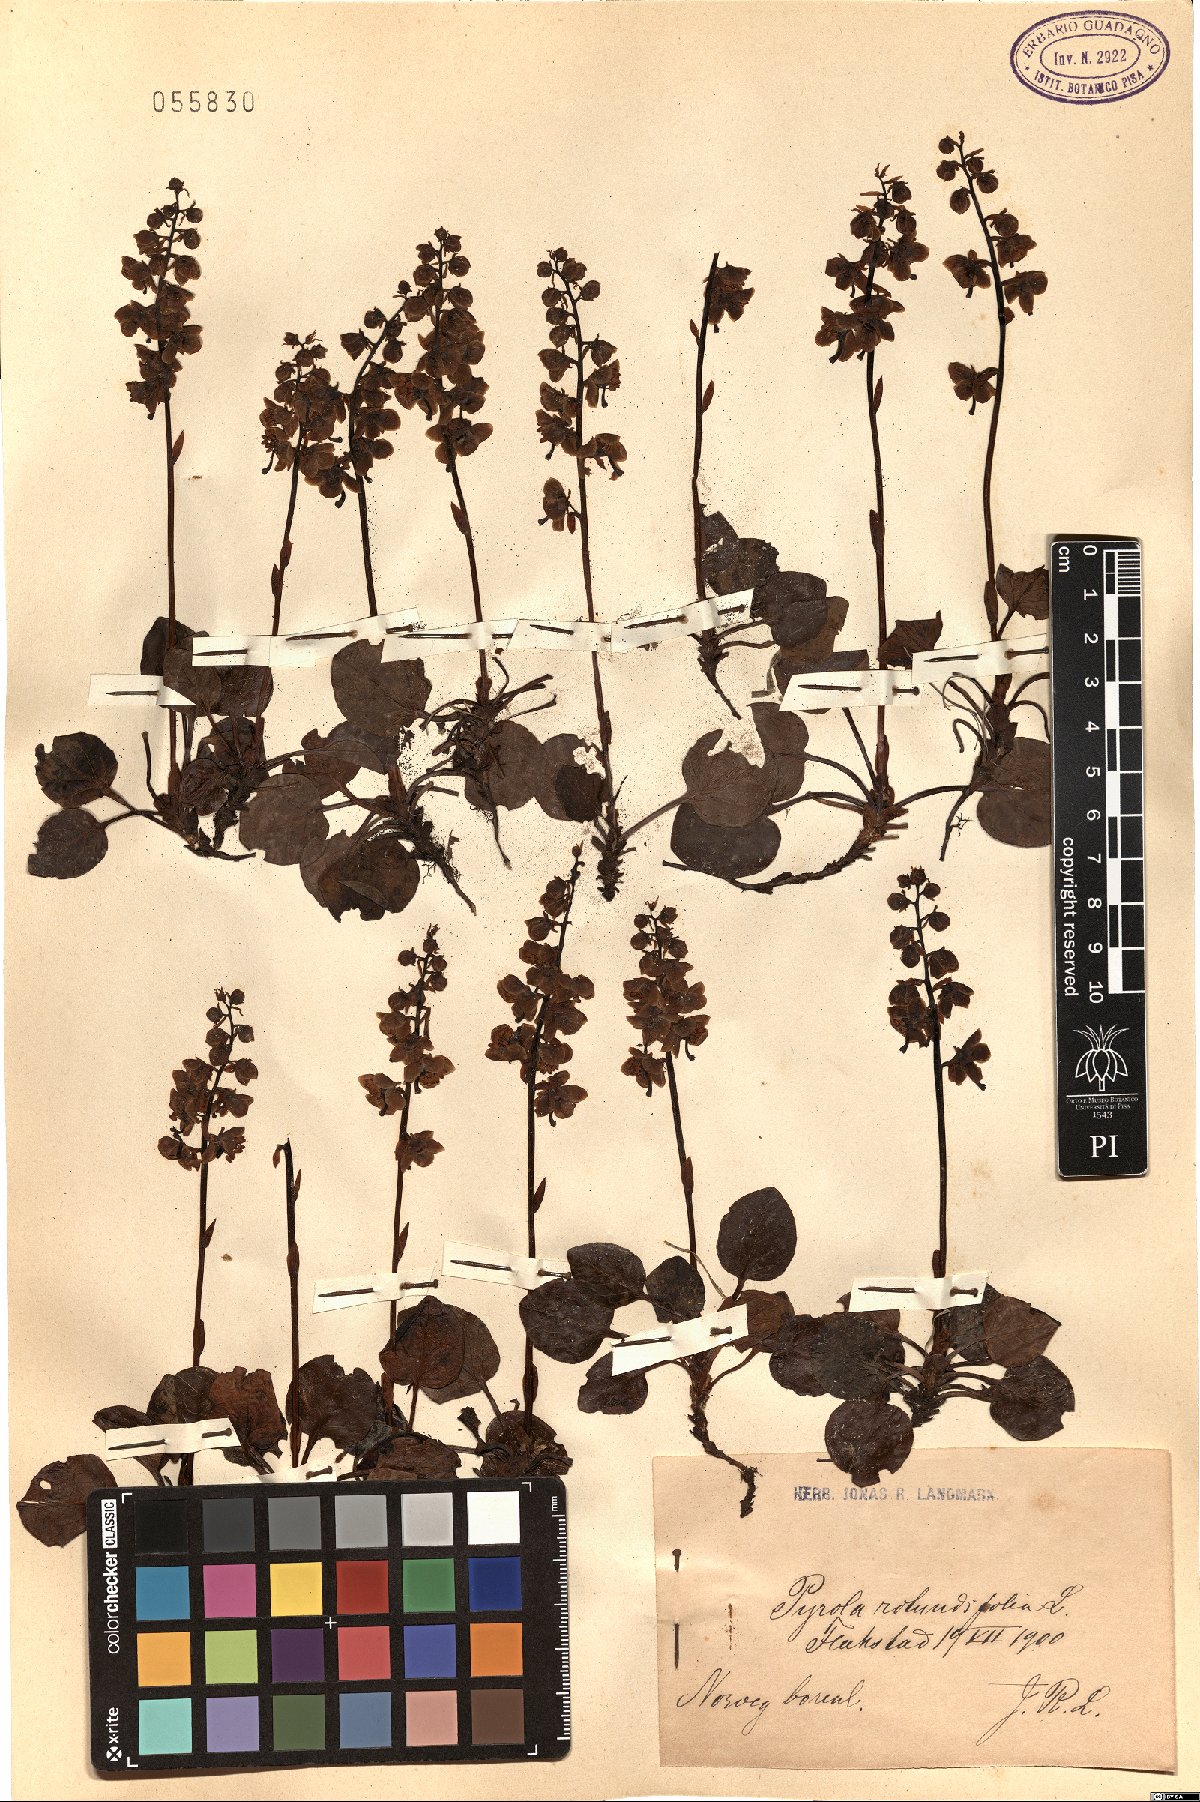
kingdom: Plantae
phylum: Tracheophyta
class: Magnoliopsida
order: Ericales
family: Ericaceae
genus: Pyrola
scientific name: Pyrola rotundifolia
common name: Round-leaved wintergreen
